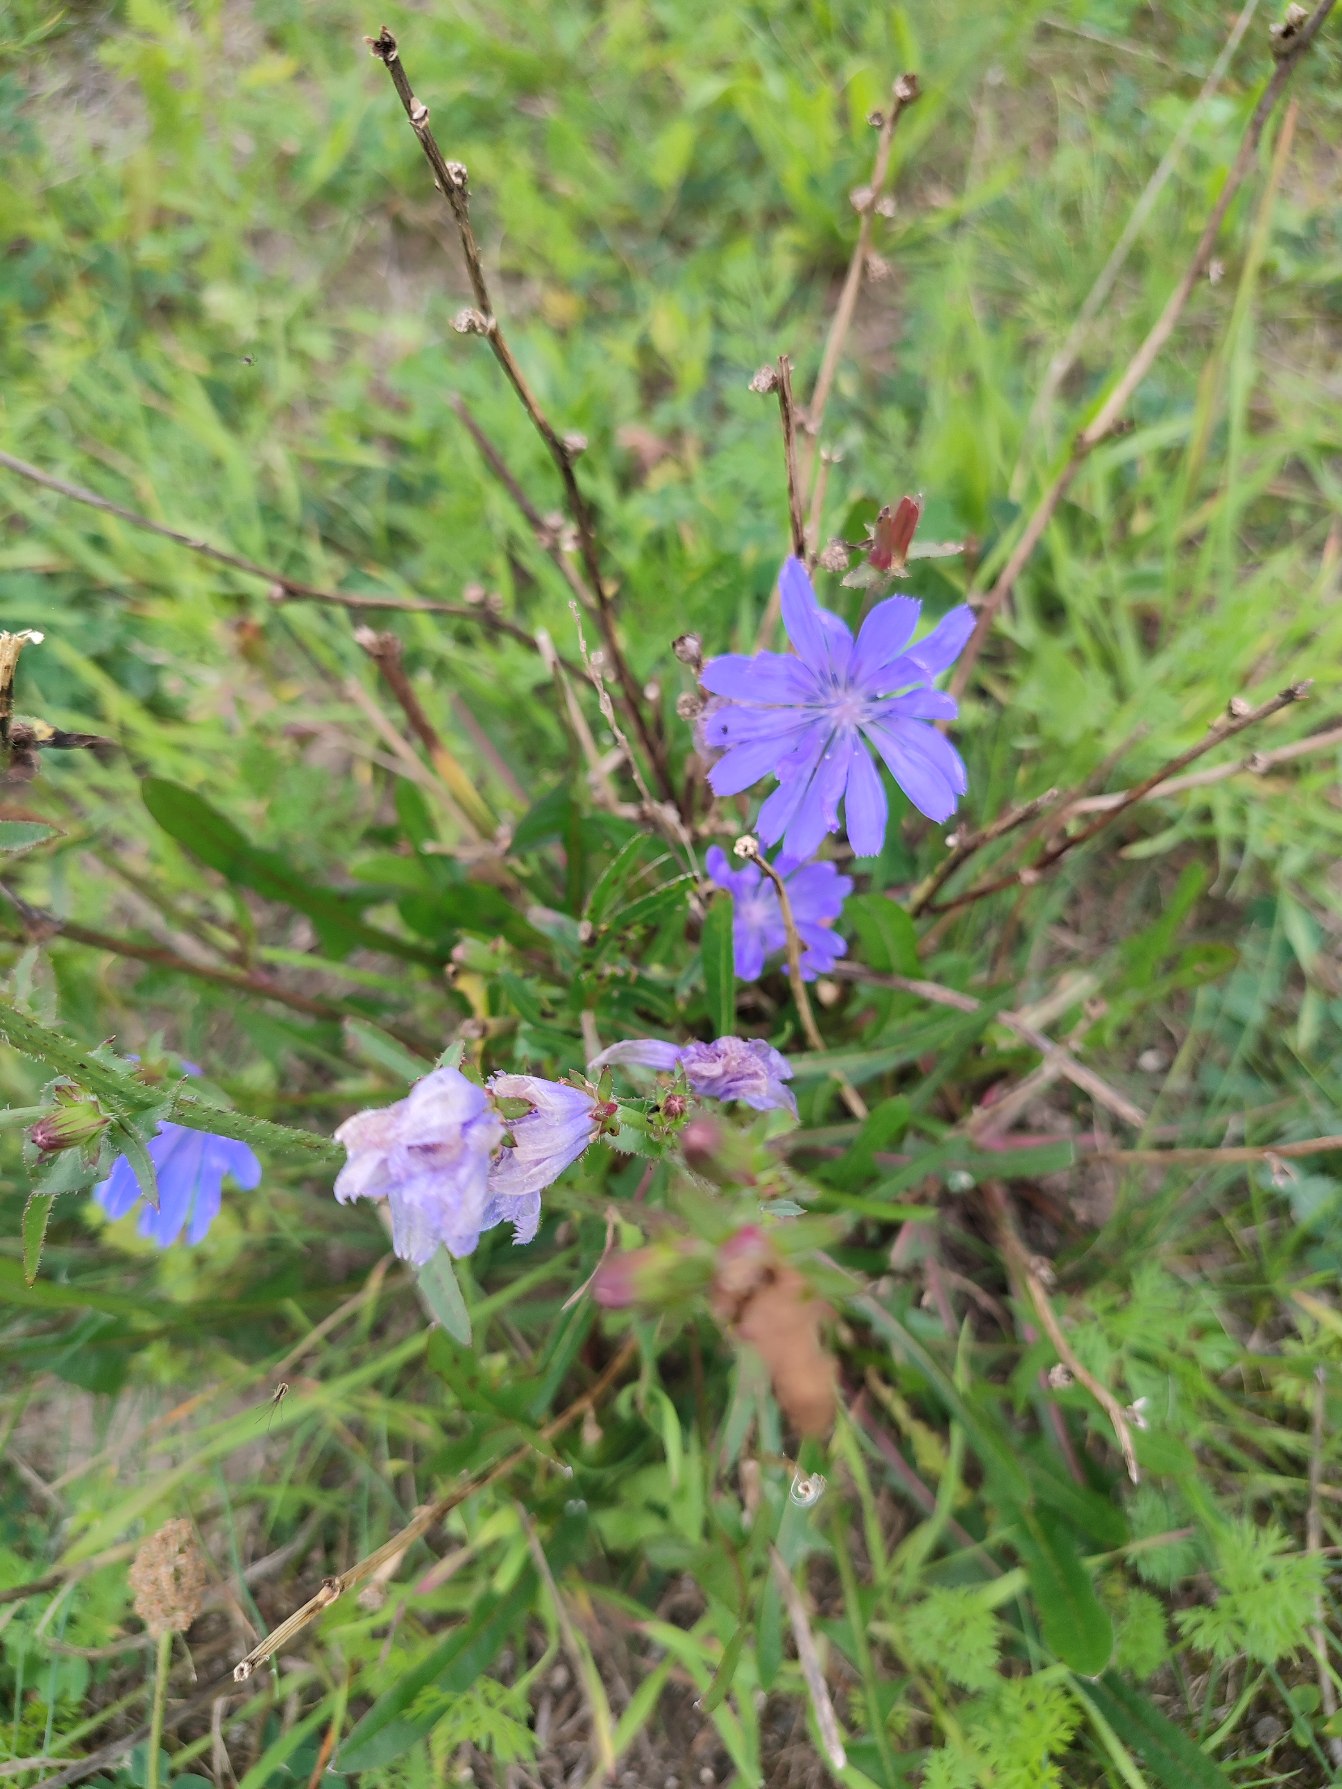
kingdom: Plantae
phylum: Tracheophyta
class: Magnoliopsida
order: Asterales
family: Asteraceae
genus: Cichorium
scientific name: Cichorium intybus
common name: Cikorie
